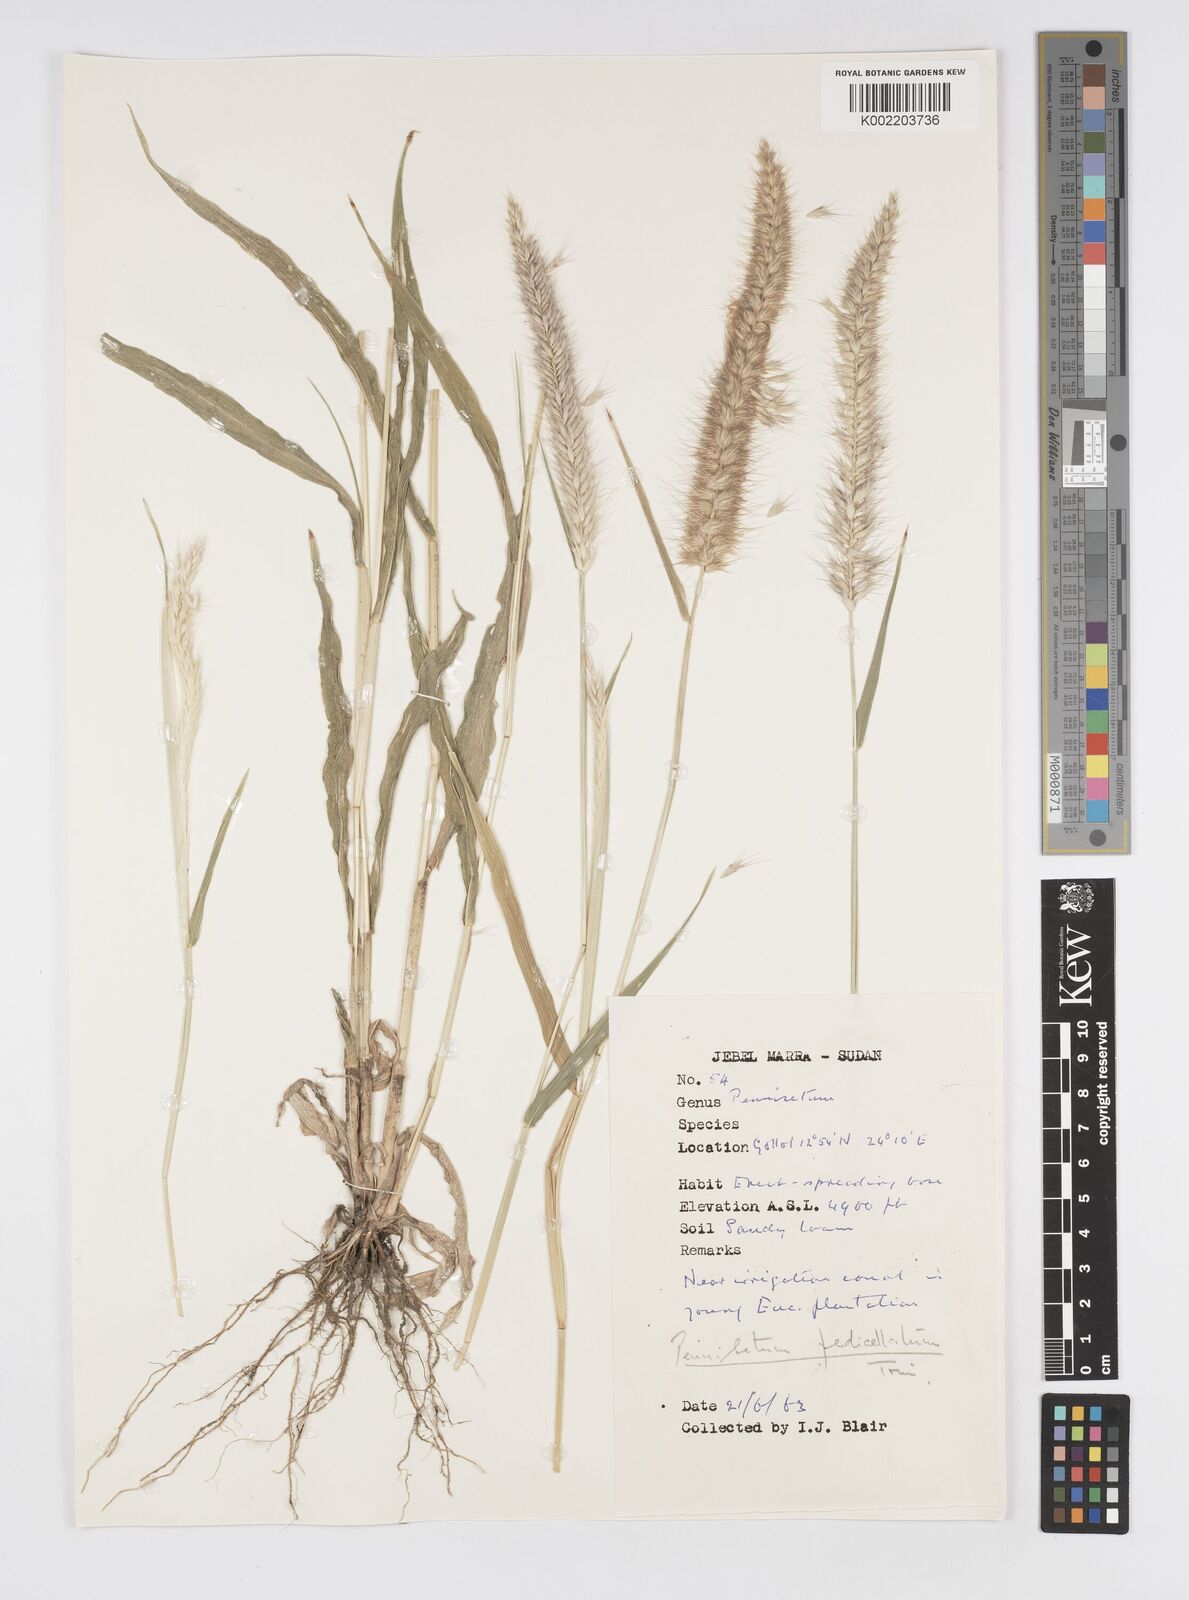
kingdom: Plantae
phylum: Tracheophyta
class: Liliopsida
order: Poales
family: Poaceae
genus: Cenchrus
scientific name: Cenchrus pedicellatus
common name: Hairy fountain grass
